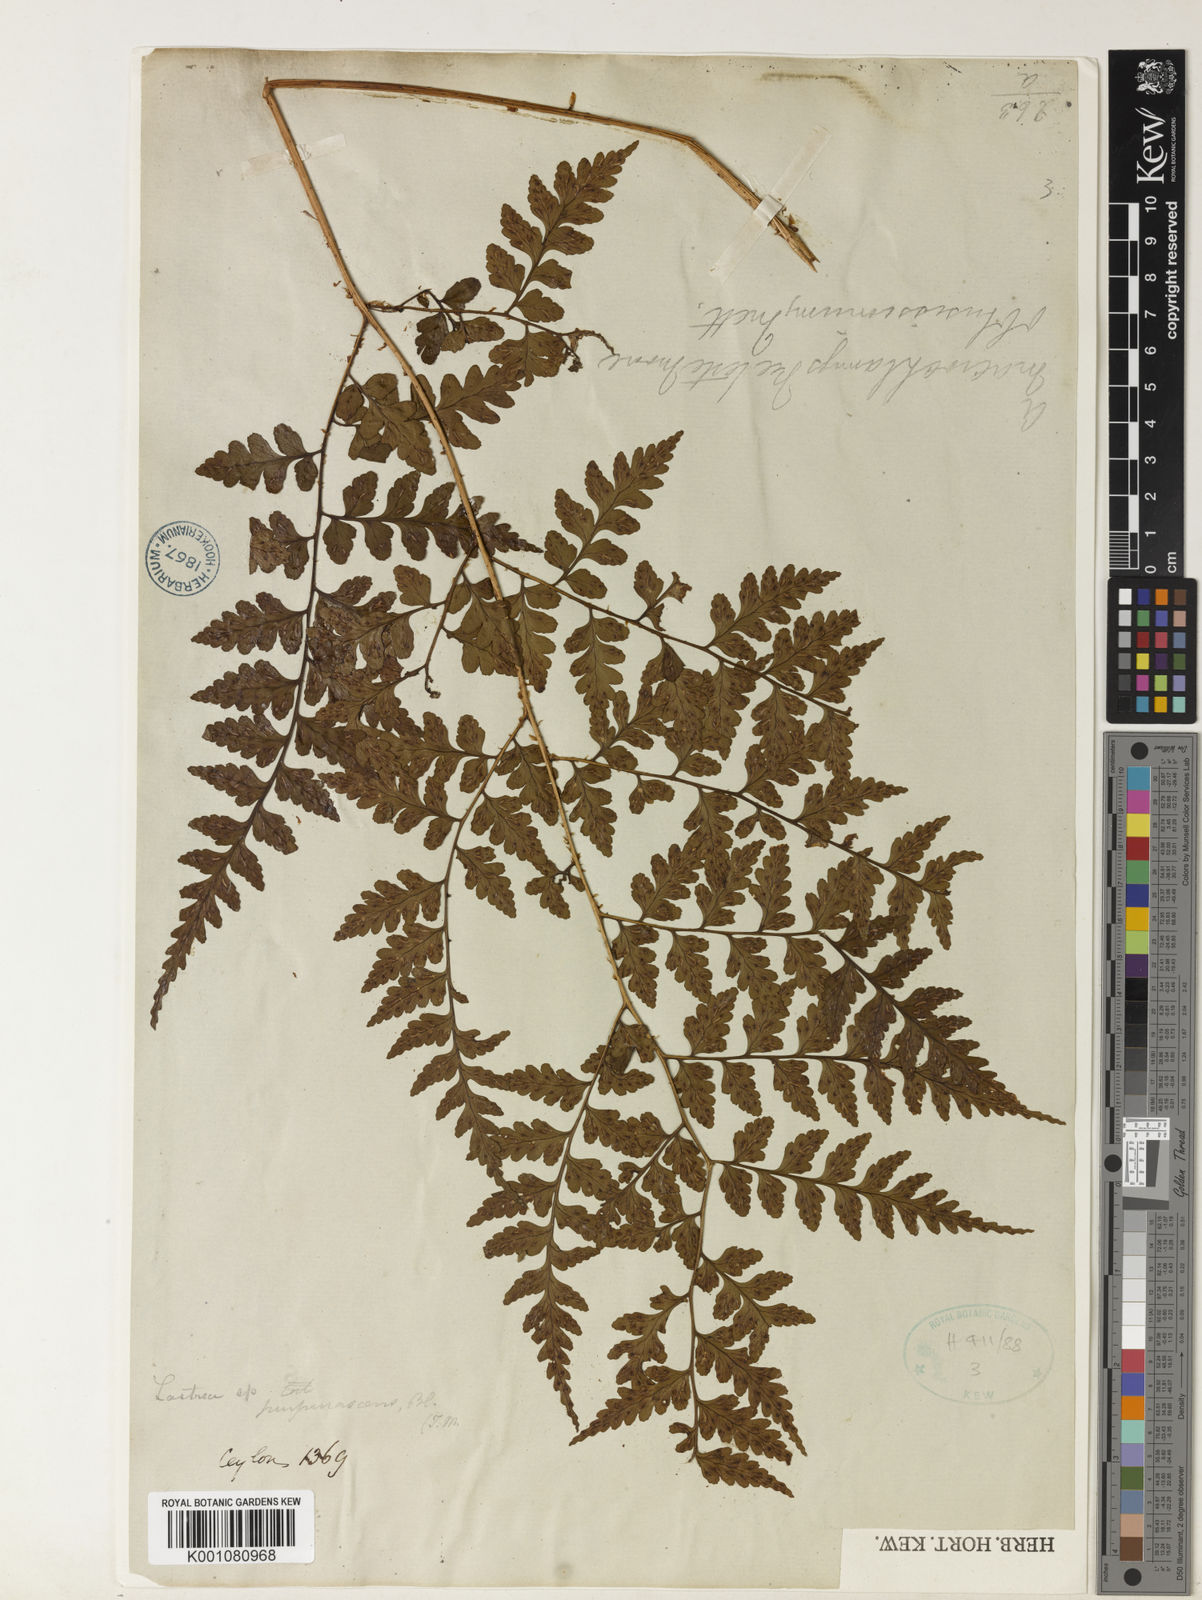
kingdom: Plantae
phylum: Tracheophyta
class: Polypodiopsida
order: Polypodiales
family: Dryopteridaceae
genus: Dryopteris
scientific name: Dryopteris
